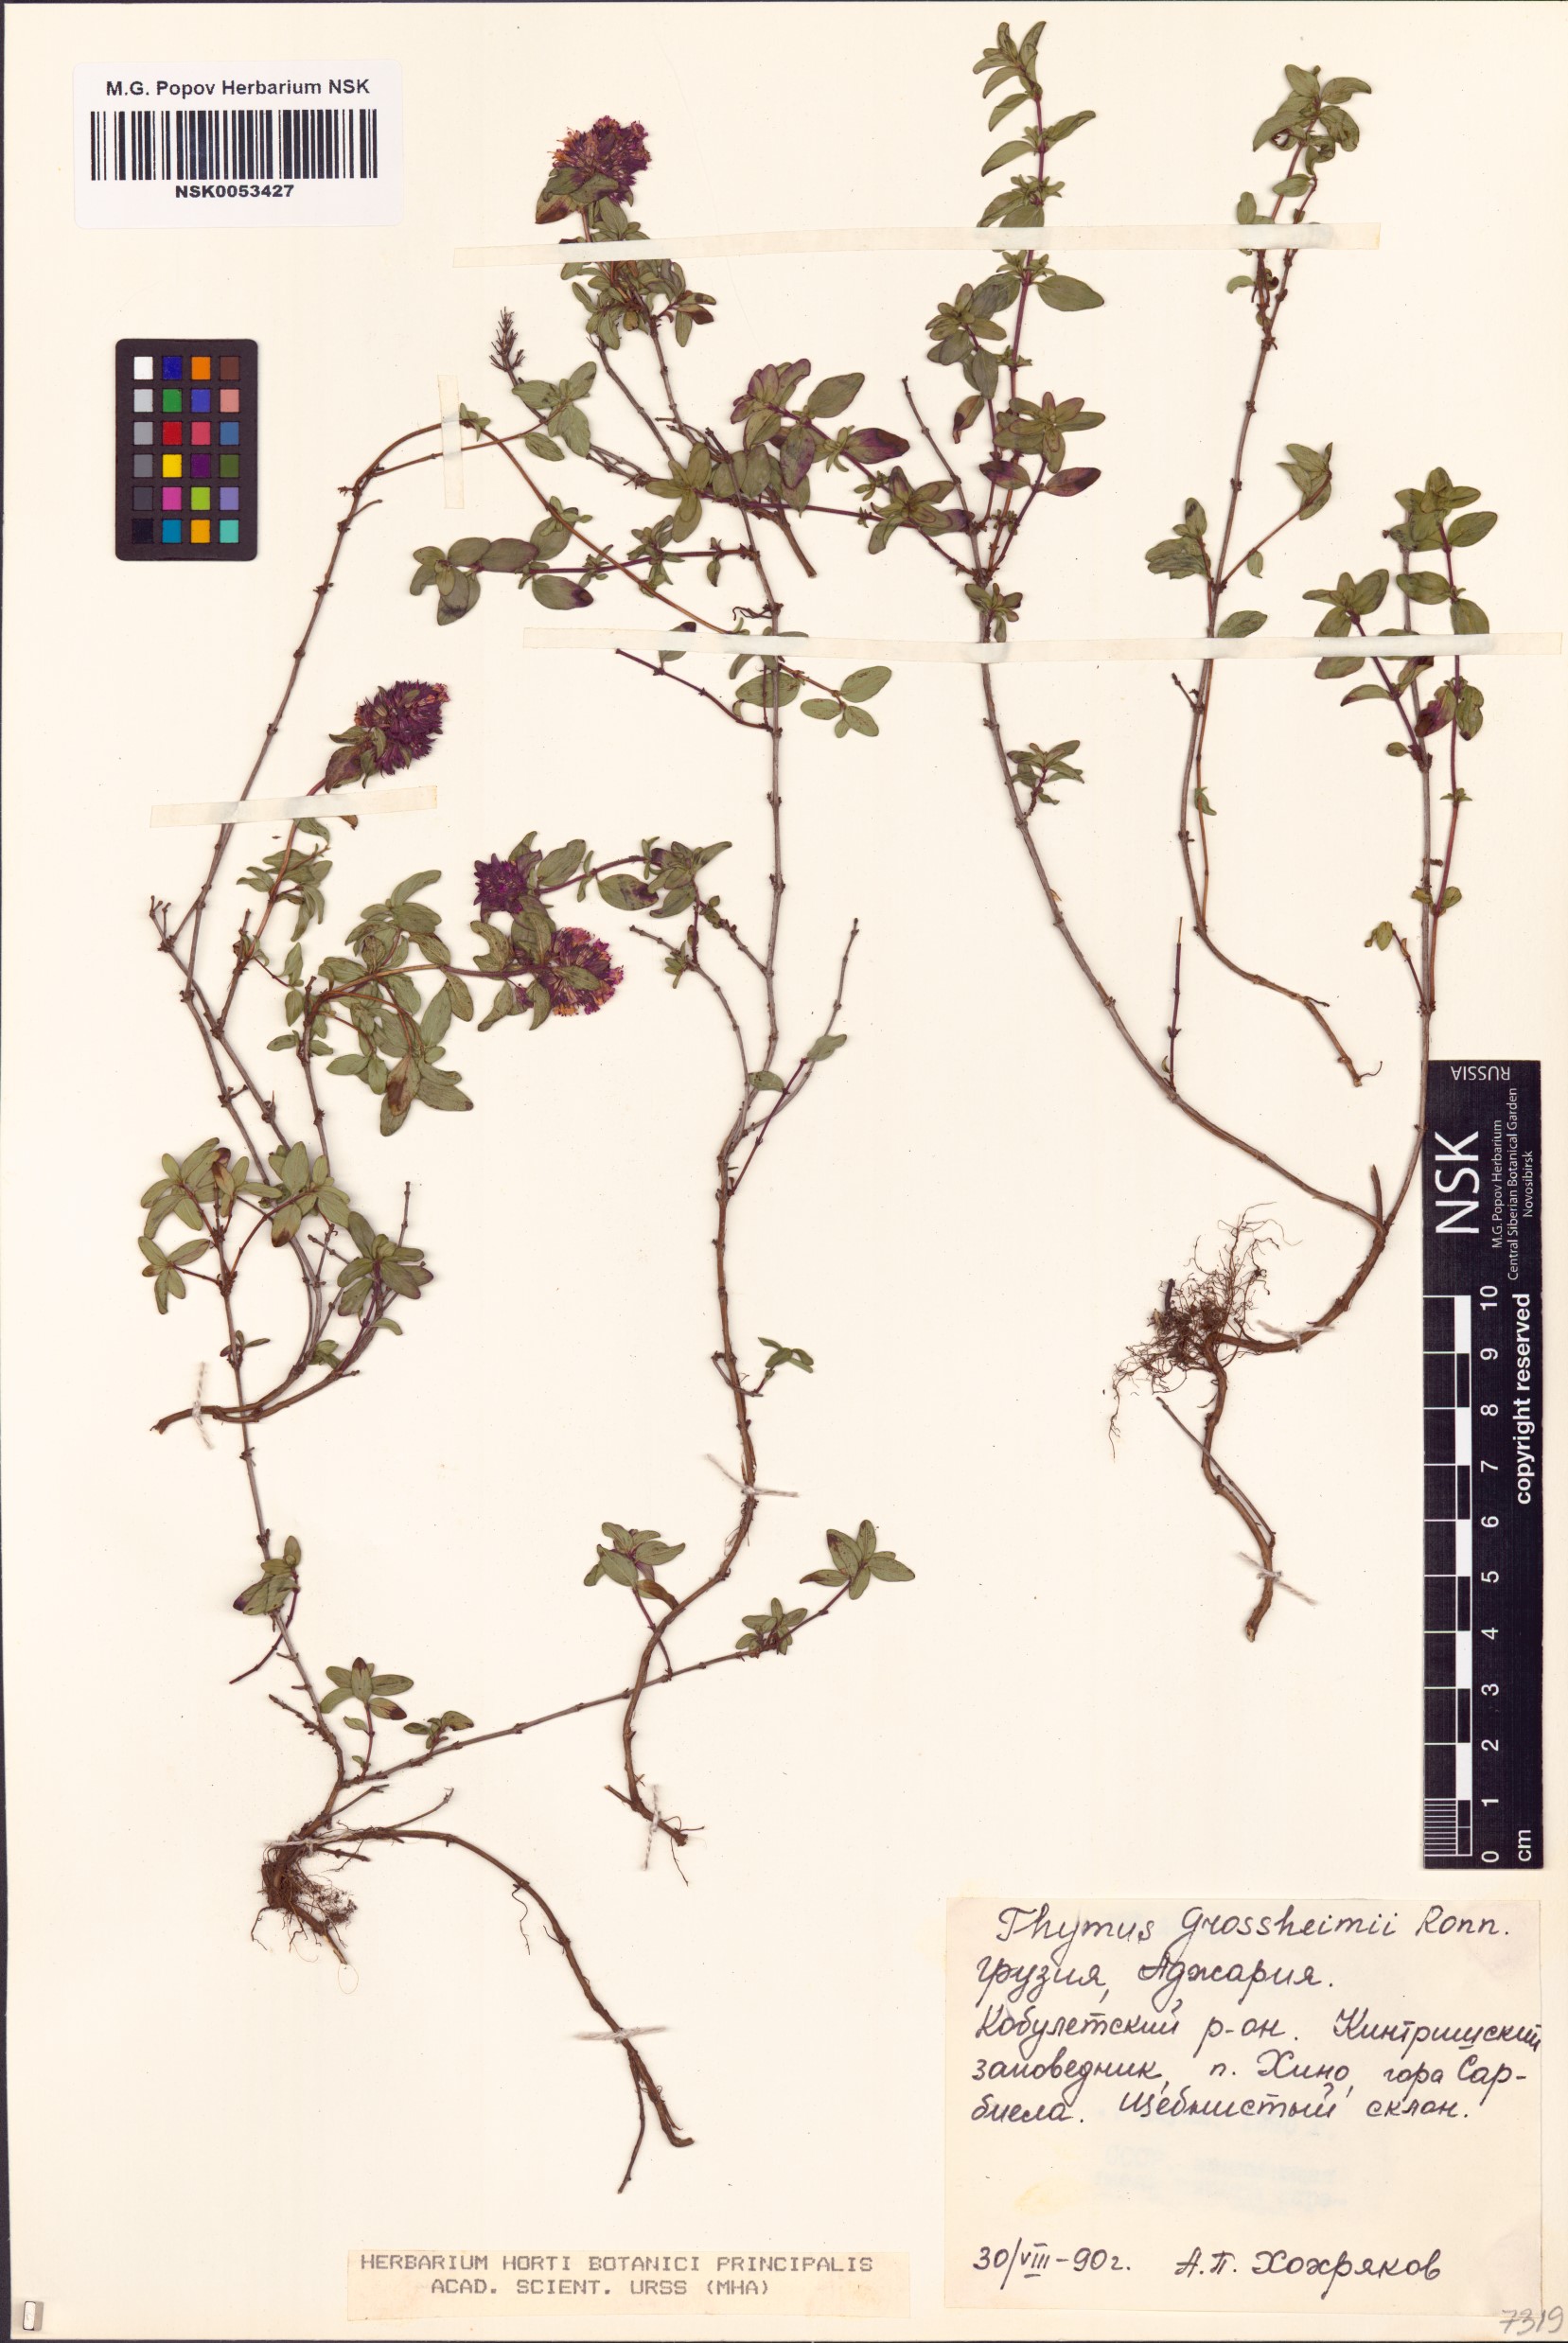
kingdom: Plantae
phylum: Tracheophyta
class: Magnoliopsida
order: Lamiales
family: Lamiaceae
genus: Thymus
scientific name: Thymus praecox
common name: Wild thyme
